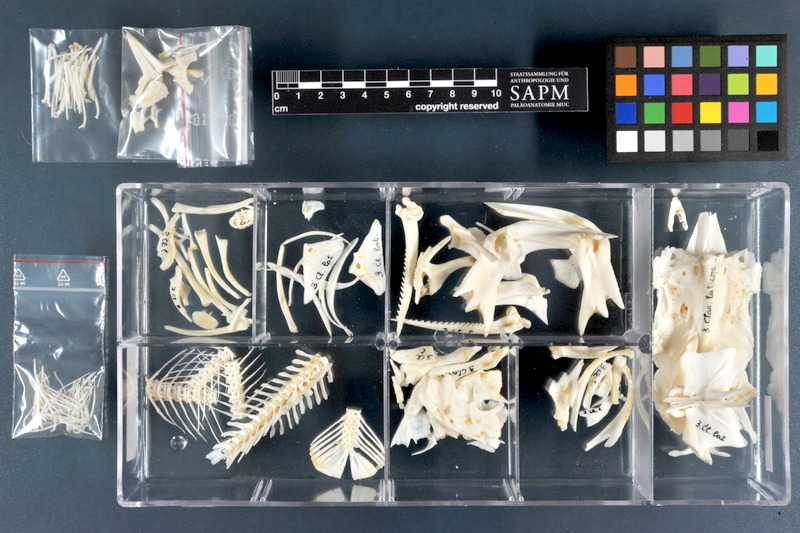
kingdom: Animalia
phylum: Chordata
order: Siluriformes
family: Claroteidae
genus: Clarotes
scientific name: Clarotes laticeps
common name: Spiny catfish
